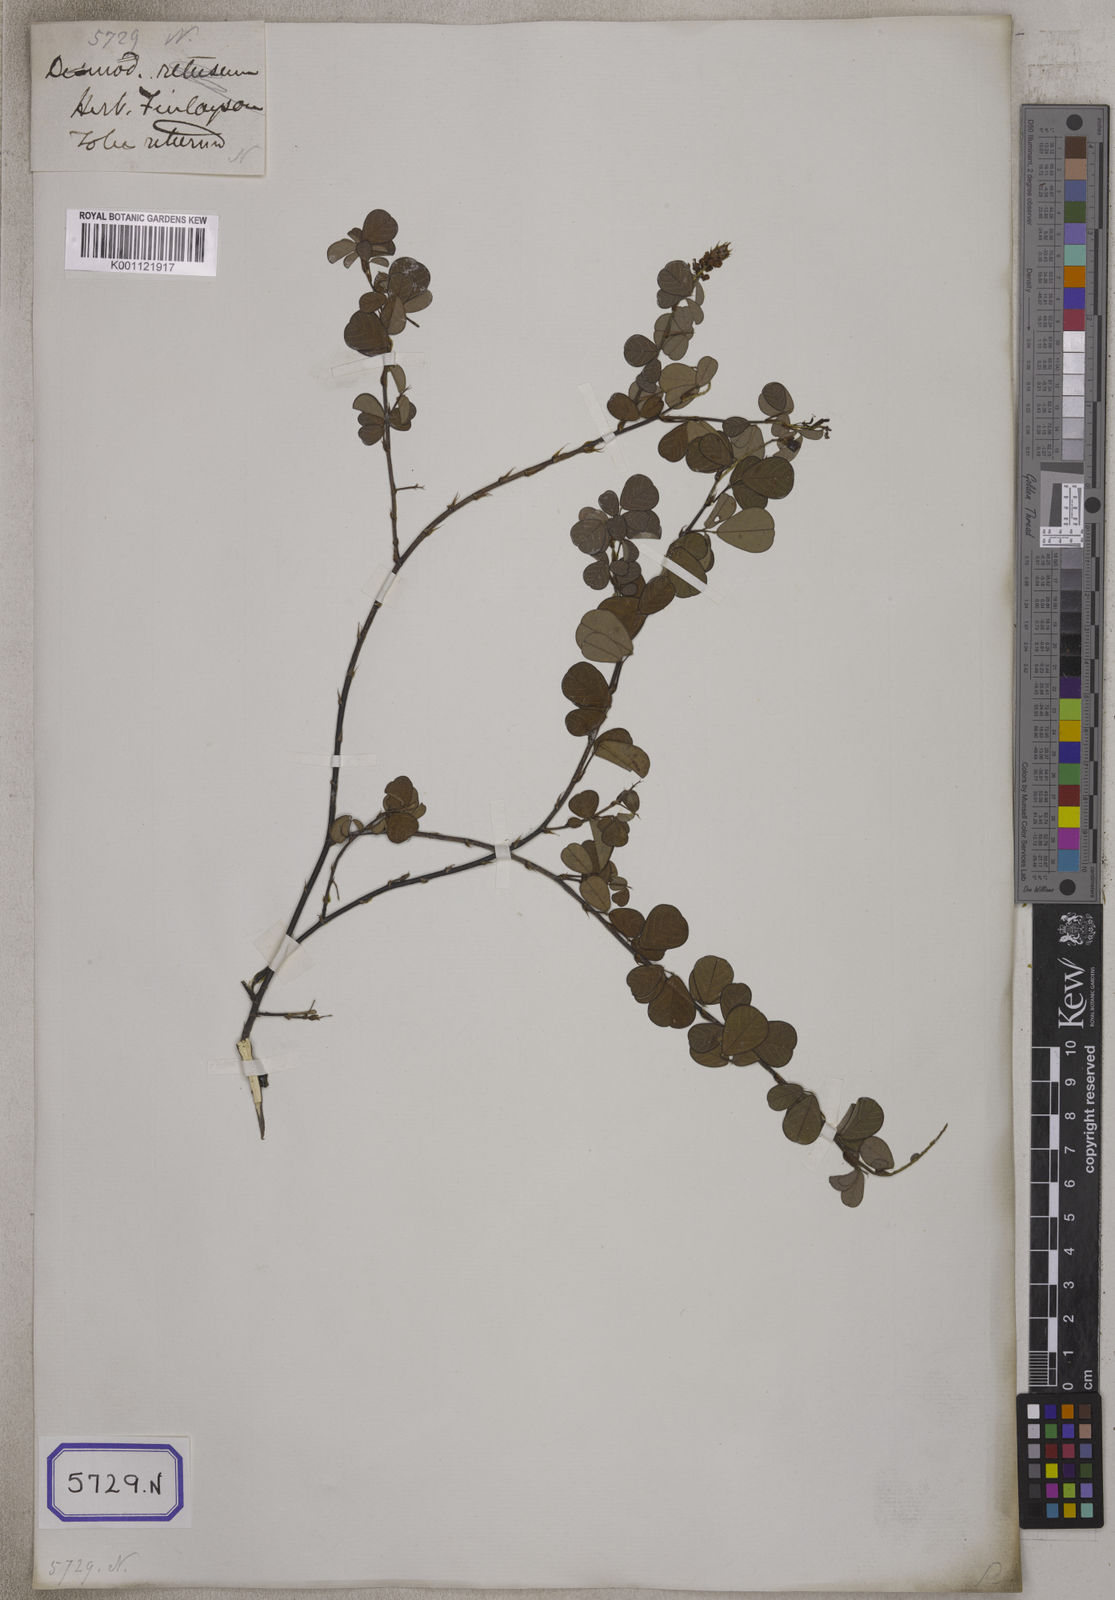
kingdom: Plantae
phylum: Tracheophyta
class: Magnoliopsida
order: Fabales
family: Fabaceae
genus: Desmodium
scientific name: Desmodium
